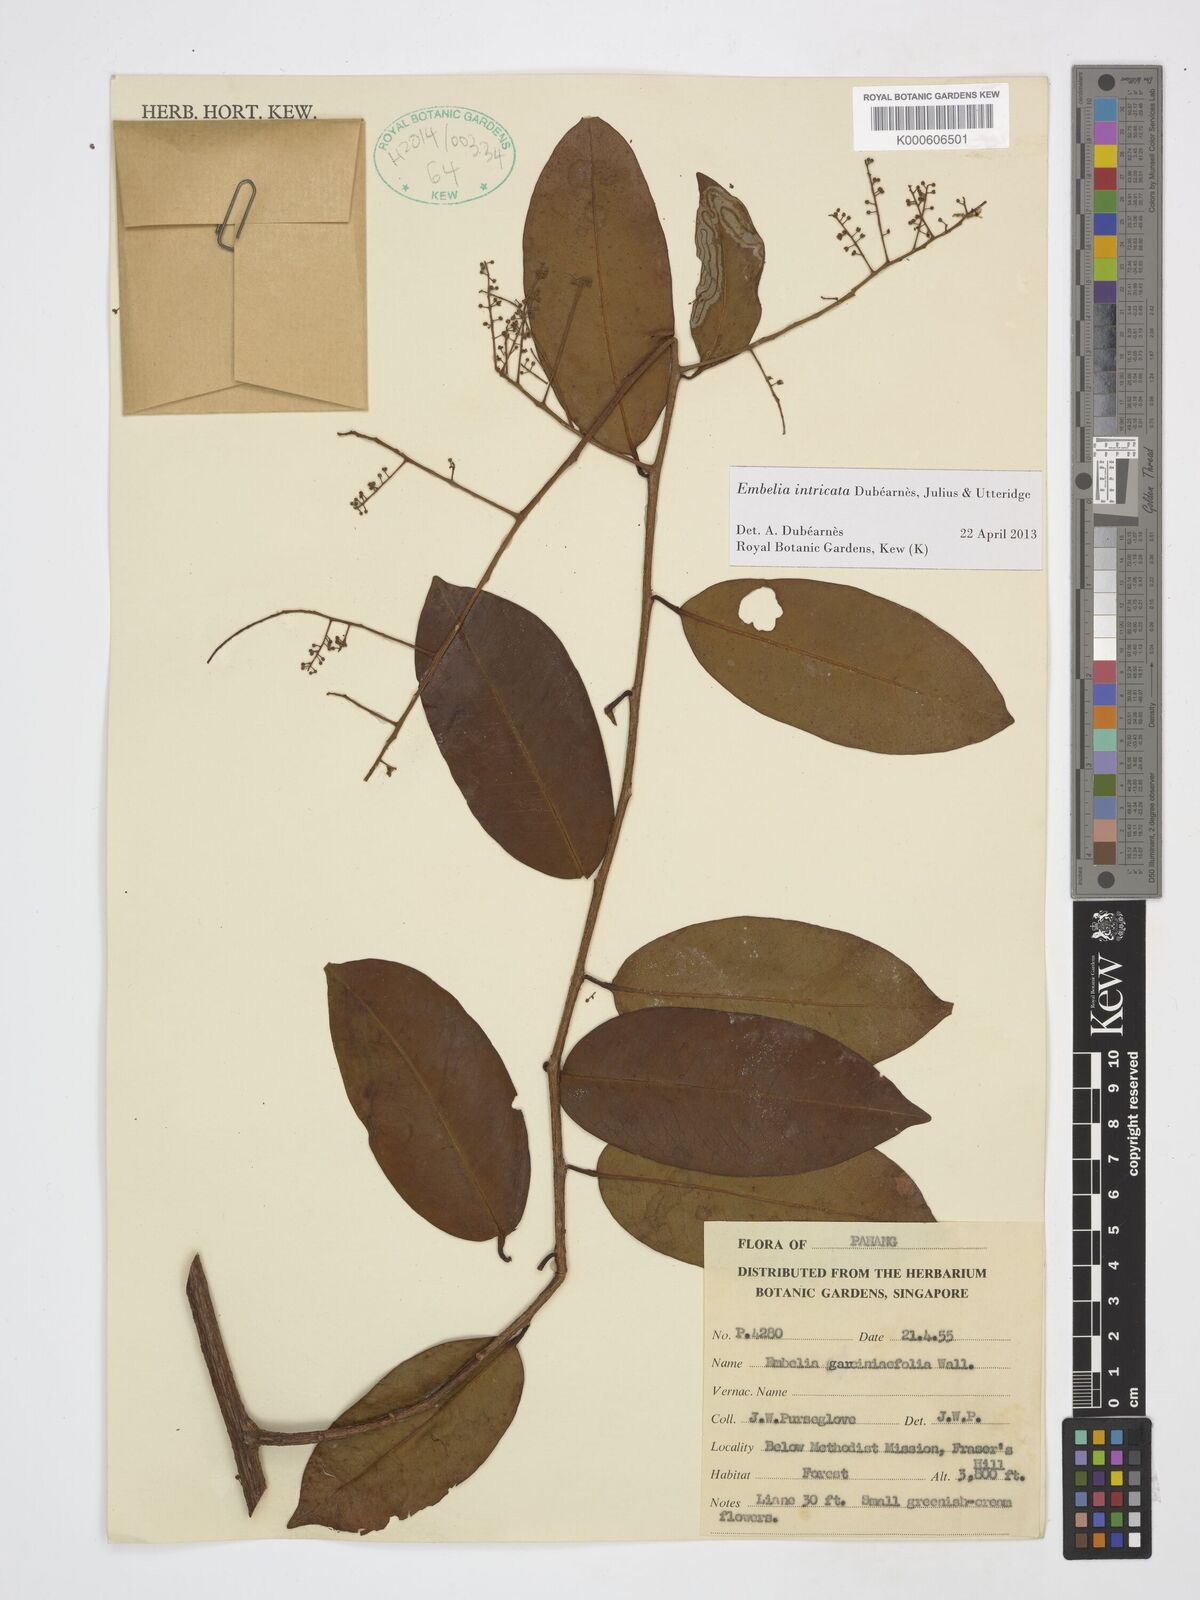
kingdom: Plantae
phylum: Tracheophyta
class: Magnoliopsida
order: Ericales
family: Primulaceae
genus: Embelia
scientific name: Embelia intricata
